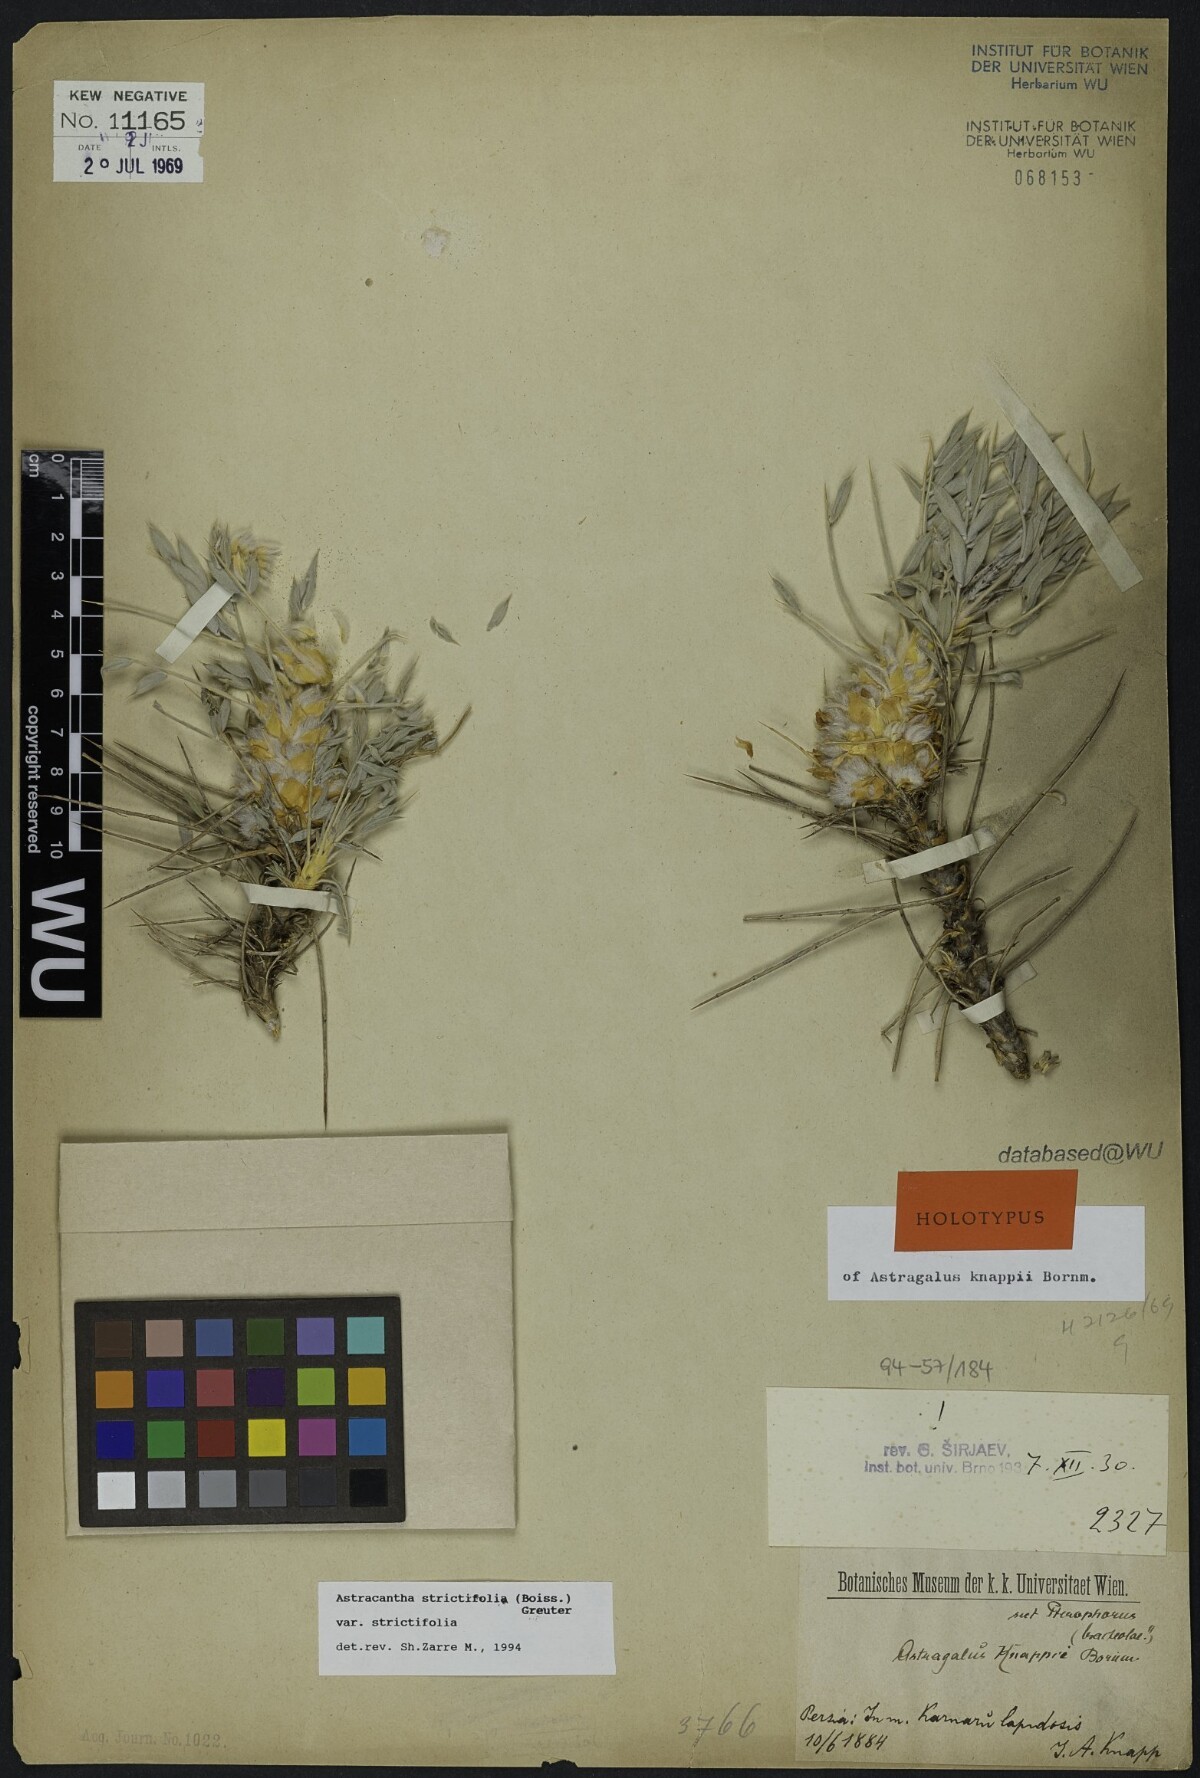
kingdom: Plantae
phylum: Tracheophyta
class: Magnoliopsida
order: Fabales
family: Fabaceae
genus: Astragalus
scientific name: Astragalus compactus
